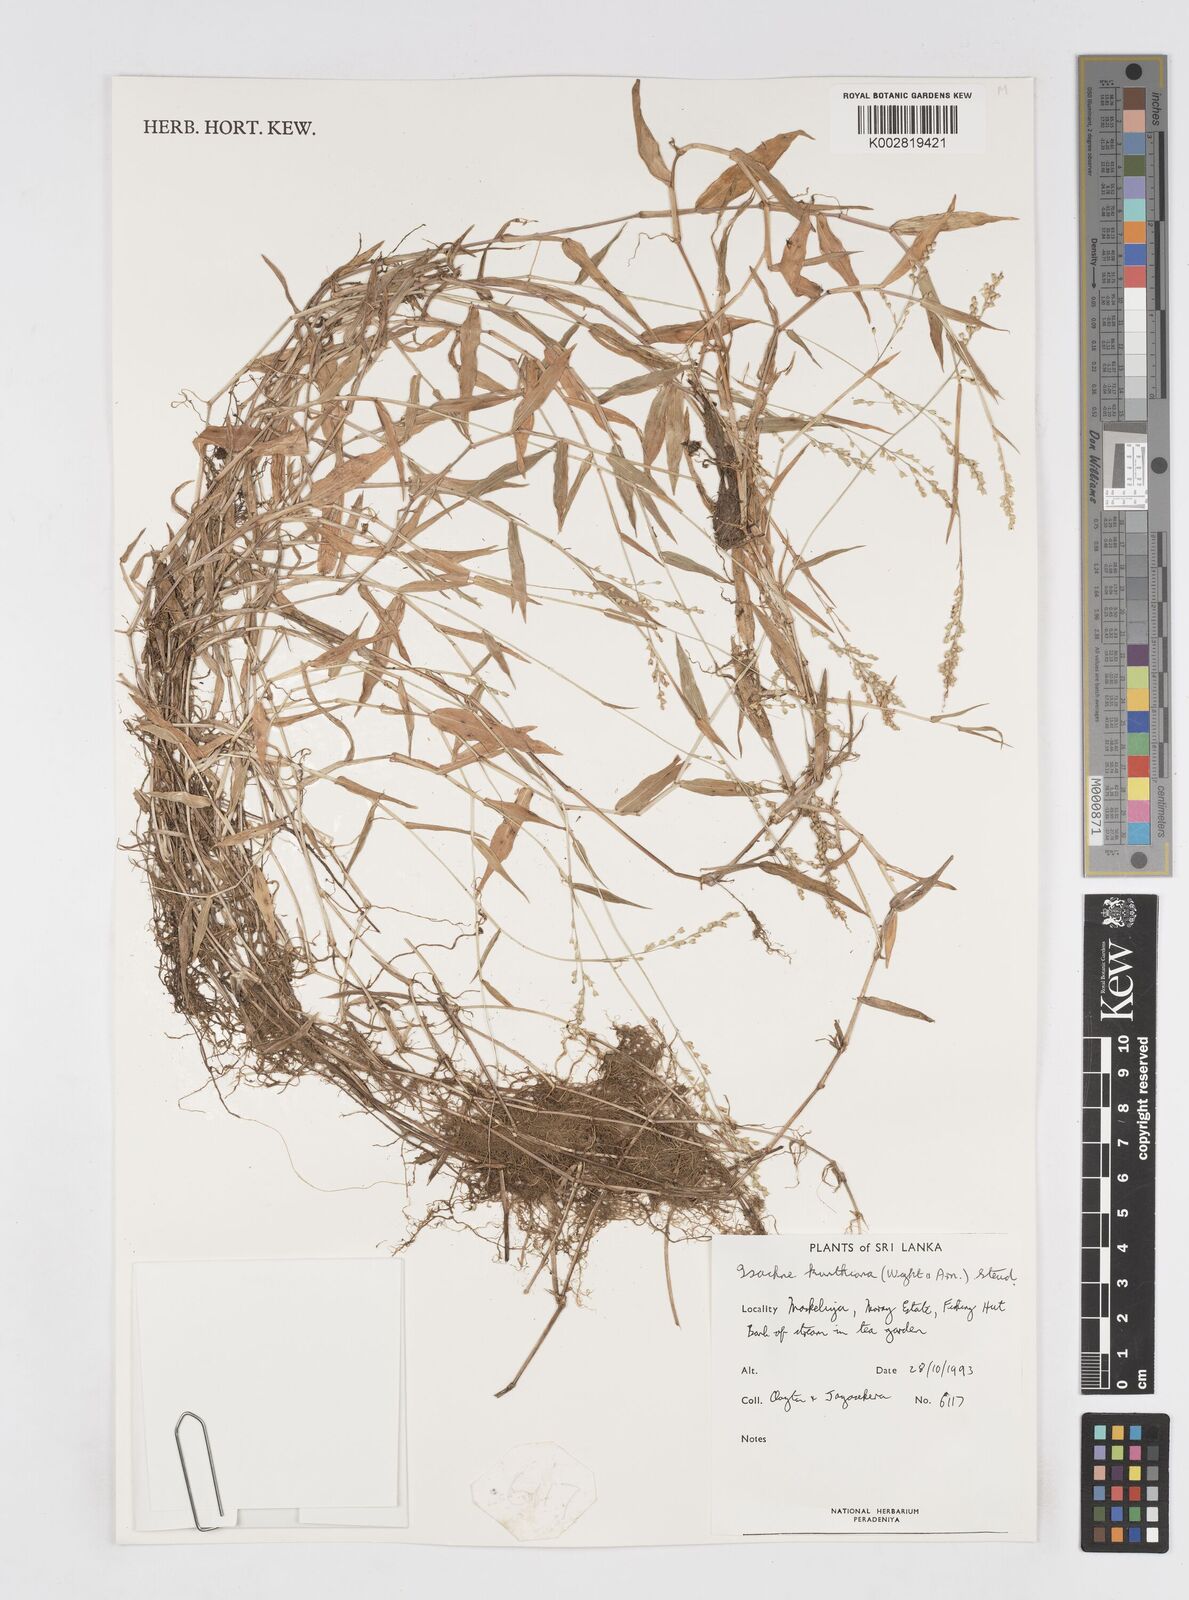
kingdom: Plantae
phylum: Tracheophyta
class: Liliopsida
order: Poales
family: Poaceae
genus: Isachne
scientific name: Isachne kunthiana
